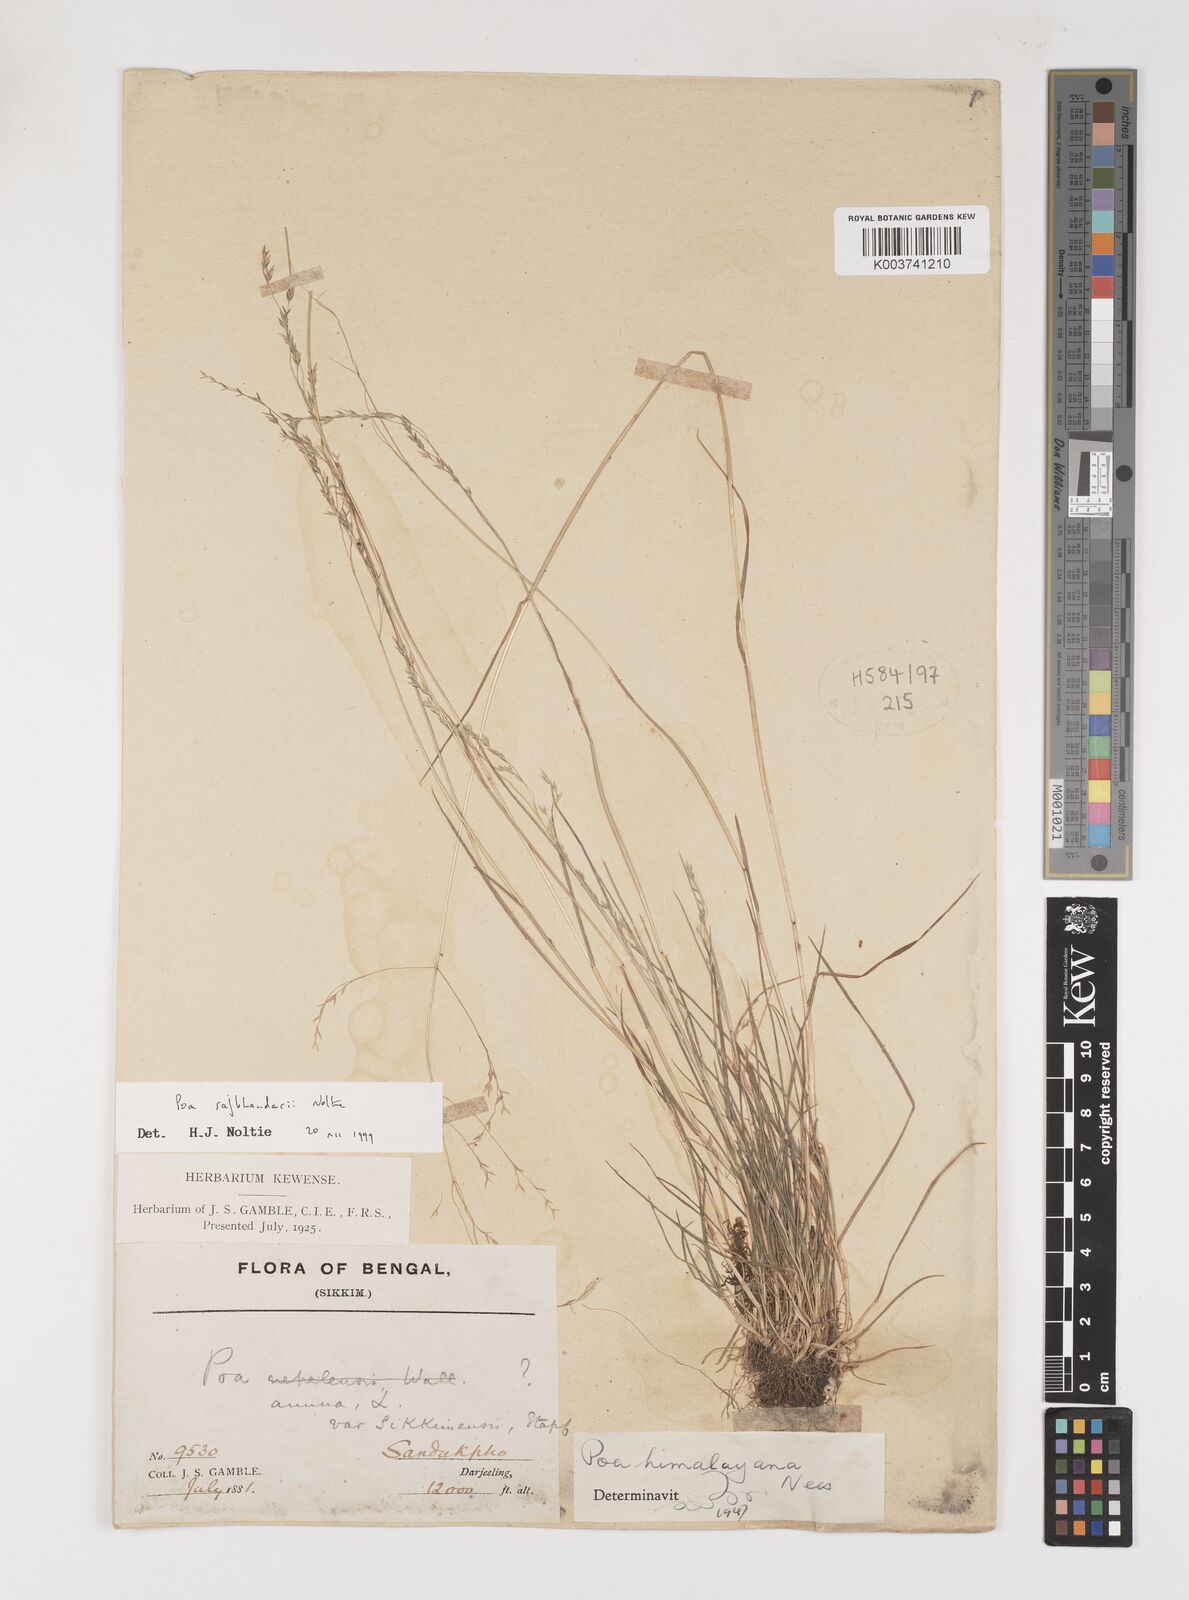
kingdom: Plantae
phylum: Tracheophyta
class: Liliopsida
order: Poales
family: Poaceae
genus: Poa
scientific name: Poa rajbhandarii
